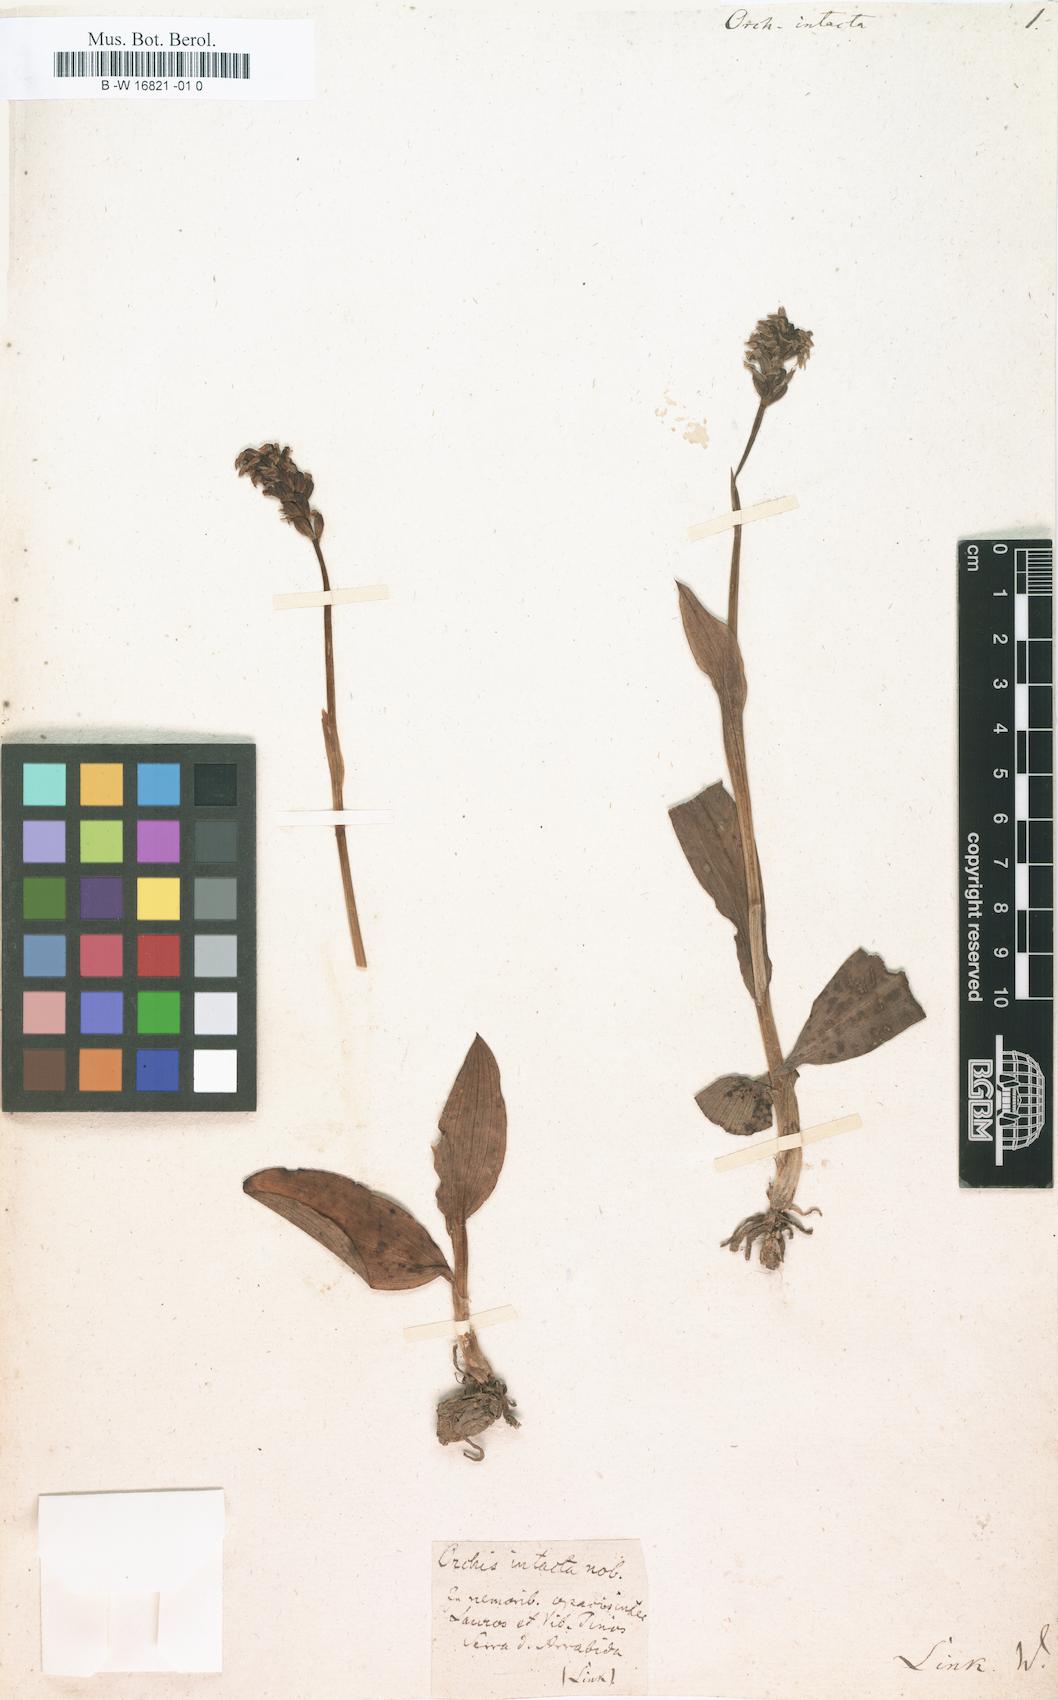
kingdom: Plantae
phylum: Tracheophyta
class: Liliopsida
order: Asparagales
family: Orchidaceae
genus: Neotinea
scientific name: Neotinea maculata
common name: Dense-flowered orchid
